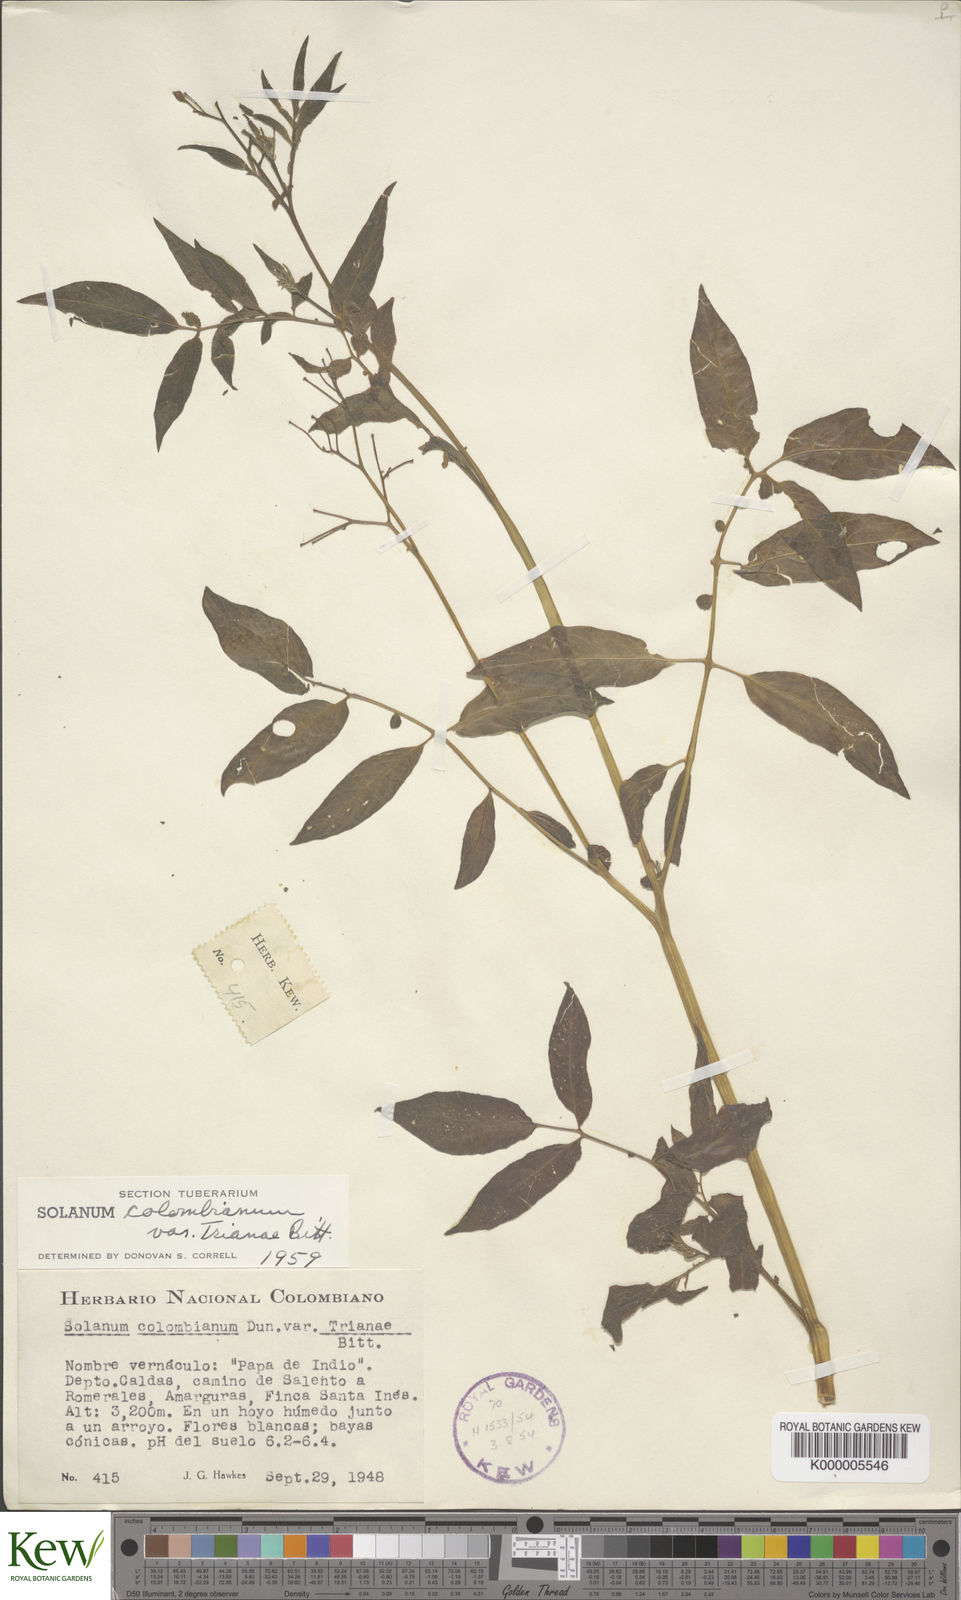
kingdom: Plantae
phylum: Tracheophyta
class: Magnoliopsida
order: Solanales
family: Solanaceae
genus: Solanum
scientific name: Solanum colombianum
